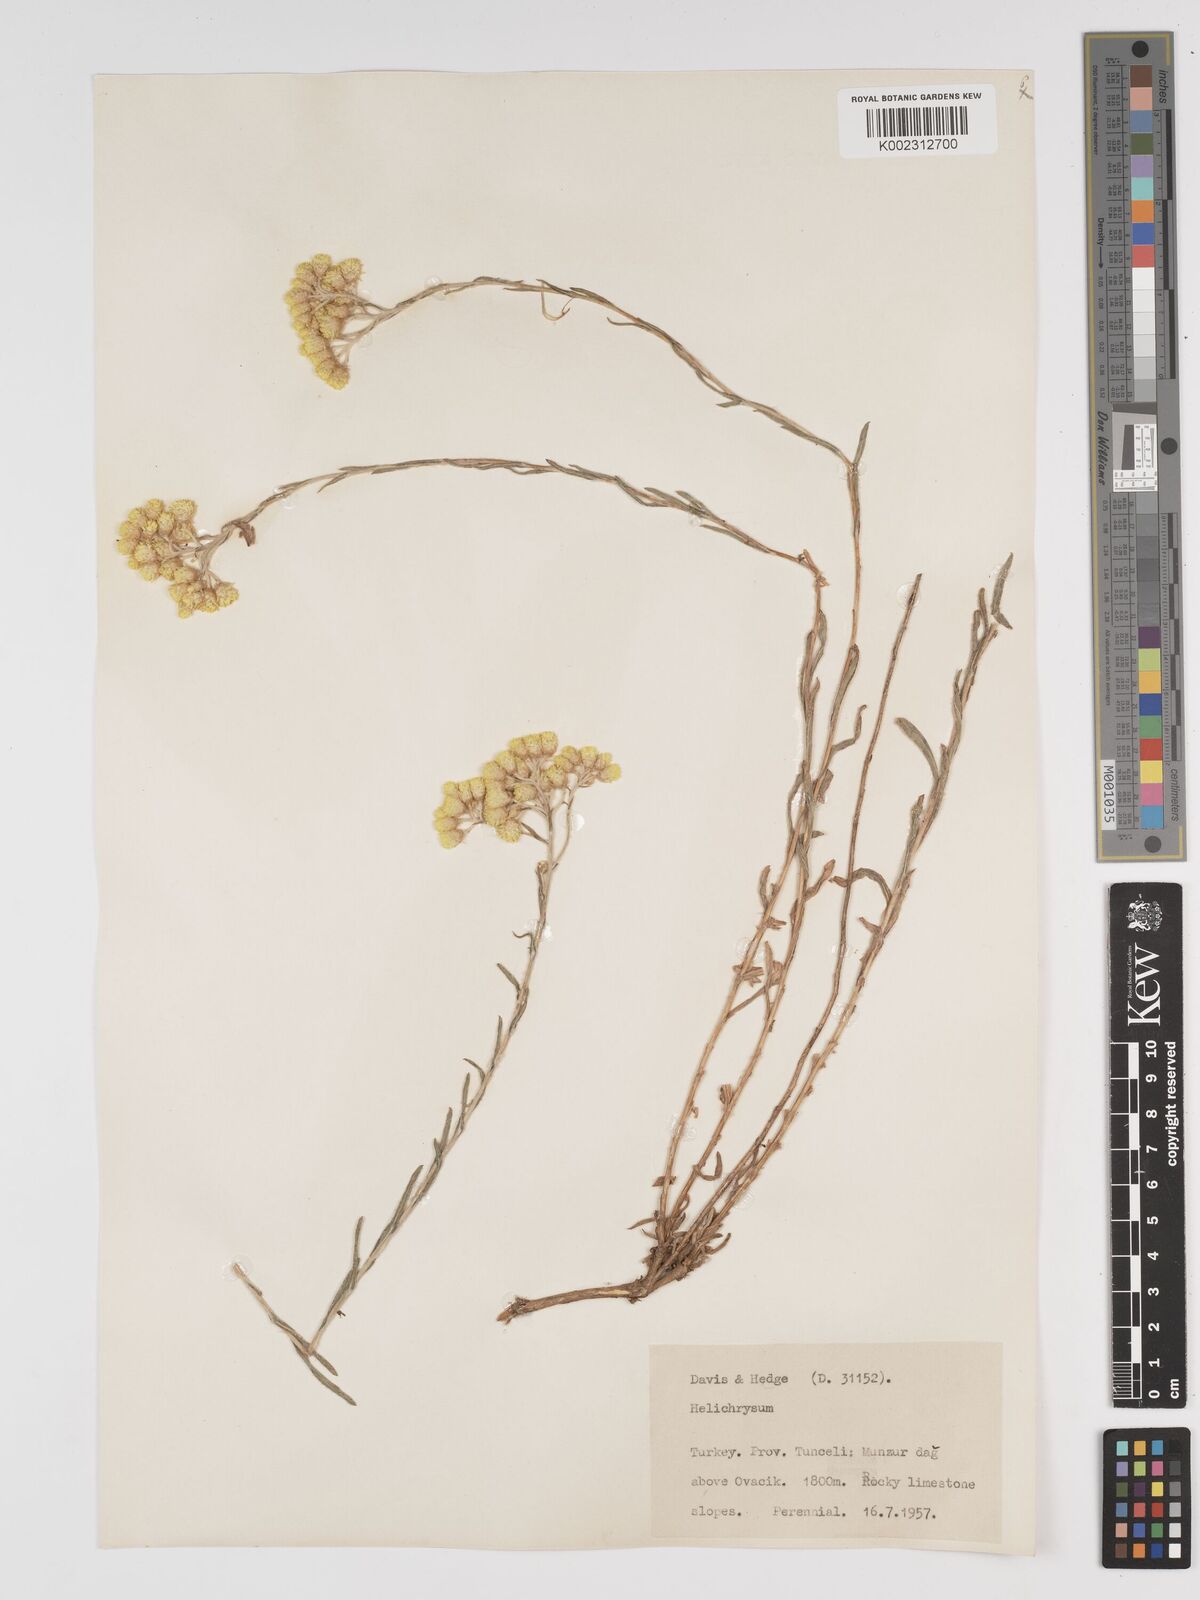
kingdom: Plantae
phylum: Tracheophyta
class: Magnoliopsida
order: Asterales
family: Asteraceae
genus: Helichrysum
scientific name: Helichrysum armenium
